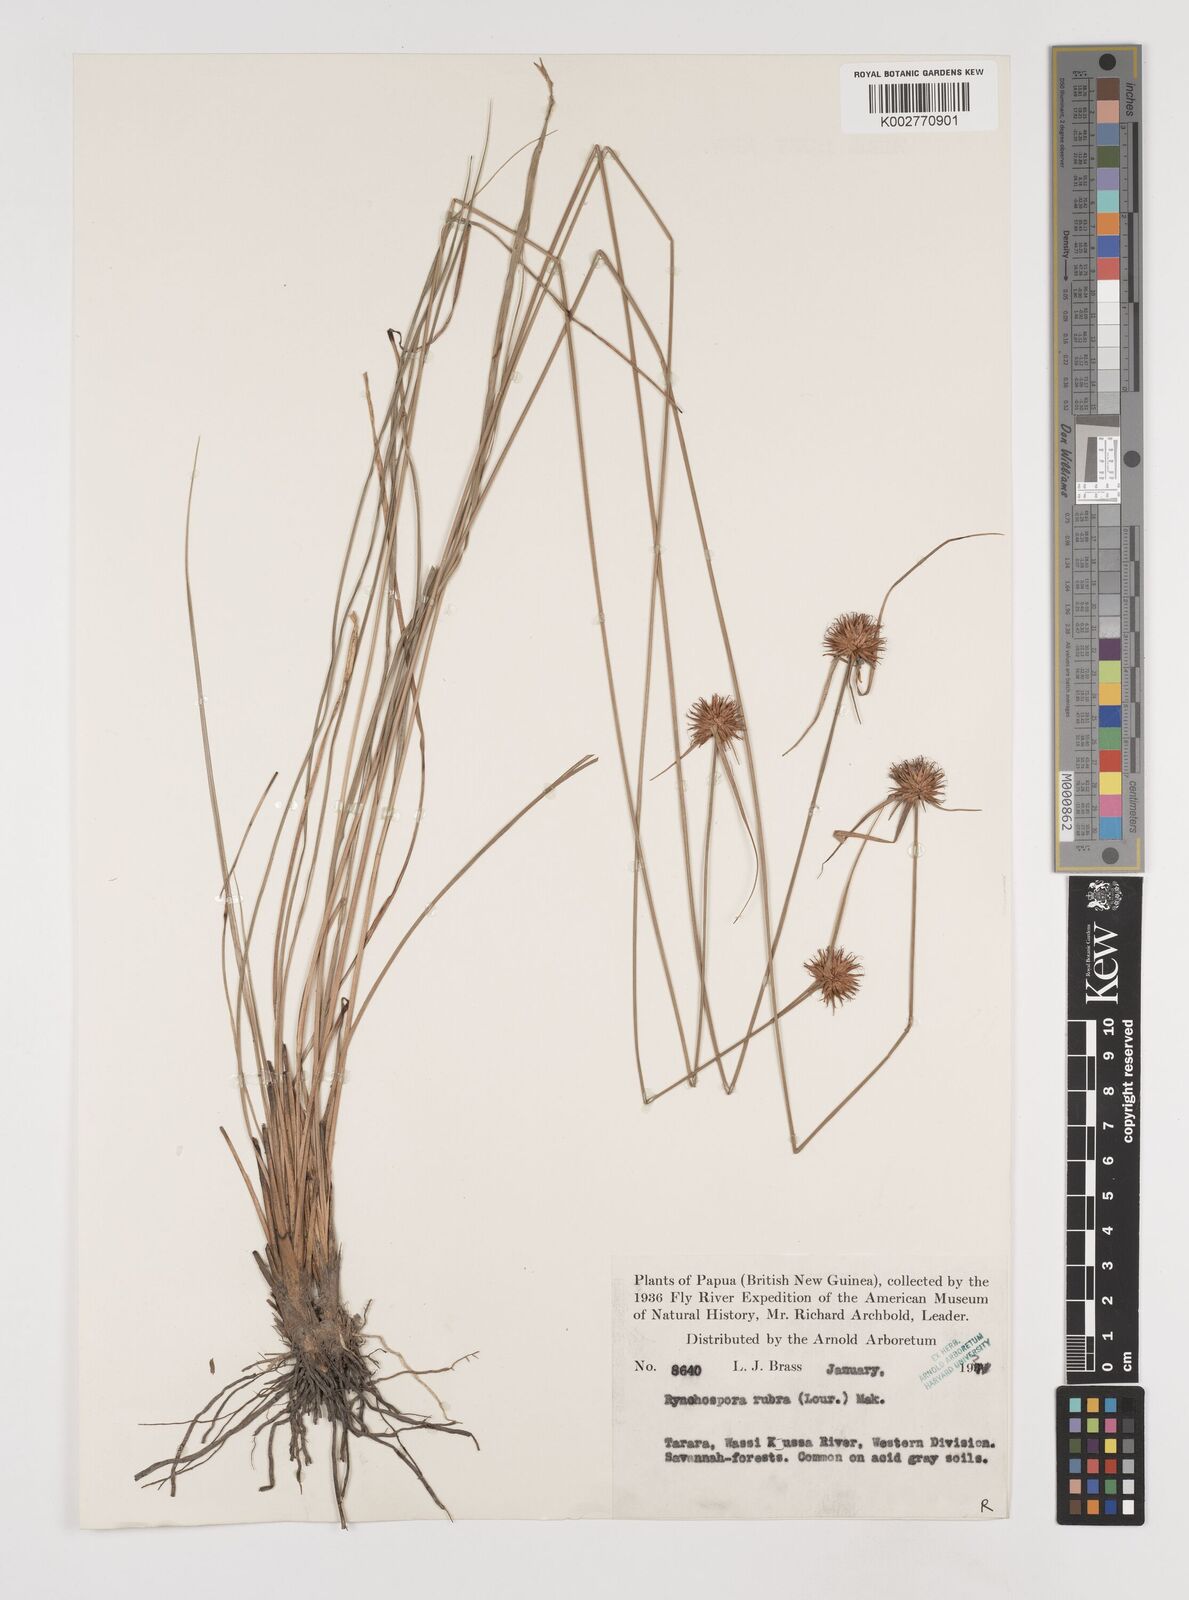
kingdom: Plantae
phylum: Tracheophyta
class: Liliopsida
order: Poales
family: Cyperaceae
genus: Rhynchospora
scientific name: Rhynchospora rubra
